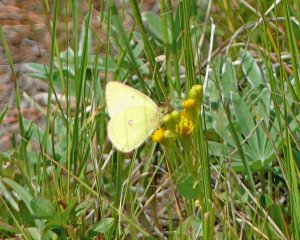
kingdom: Animalia
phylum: Arthropoda
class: Insecta
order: Lepidoptera
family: Pieridae
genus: Colias
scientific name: Colias interior
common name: Pink-edged Sulphur
